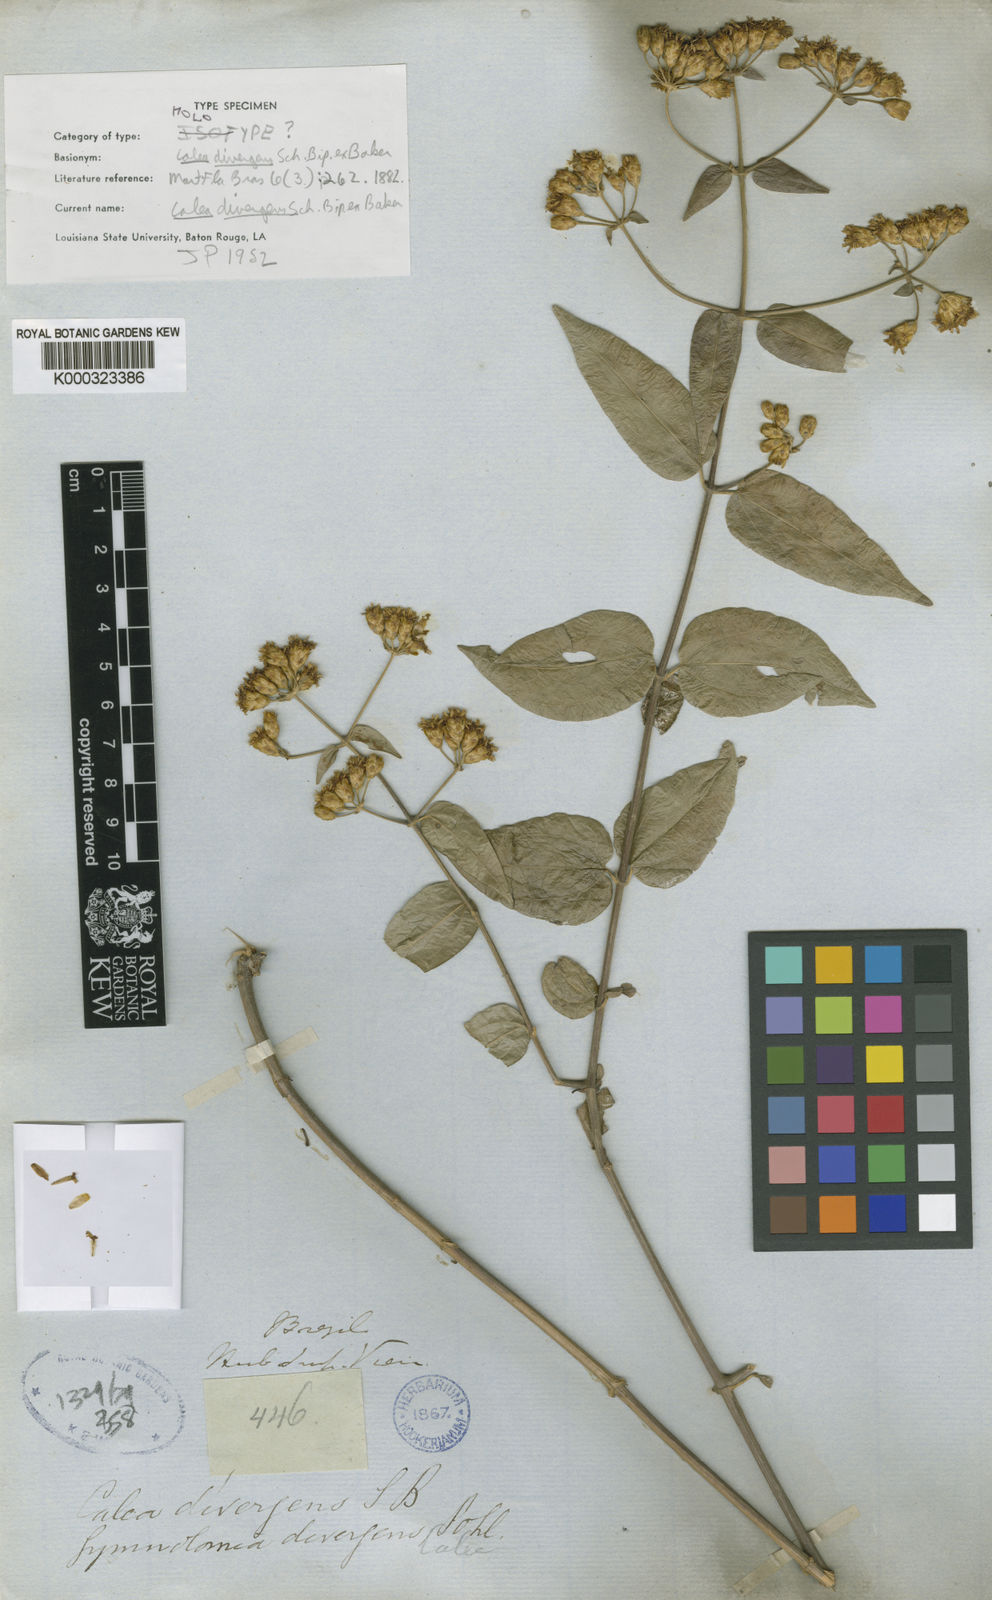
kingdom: Plantae
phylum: Tracheophyta
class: Magnoliopsida
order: Asterales
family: Asteraceae
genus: Calea
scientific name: Calea divergens
